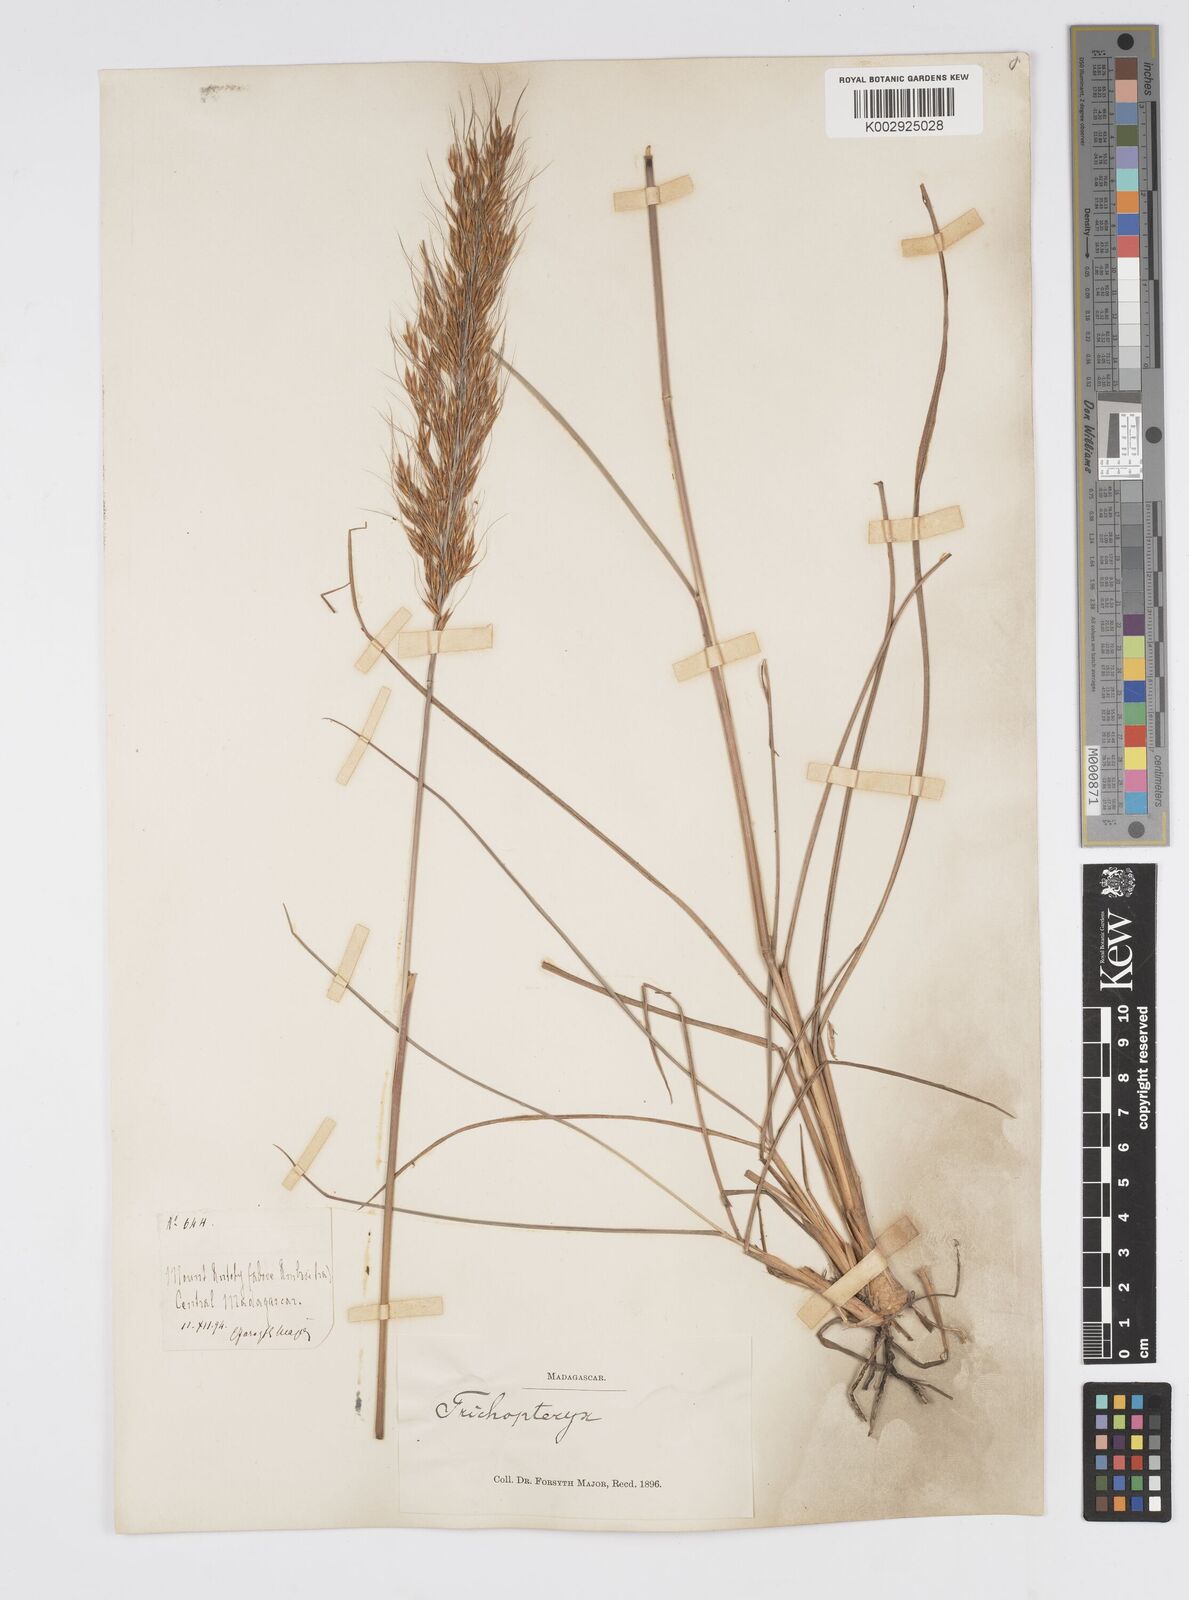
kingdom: Plantae
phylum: Tracheophyta
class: Liliopsida
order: Poales
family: Poaceae
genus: Loudetia
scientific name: Loudetia
